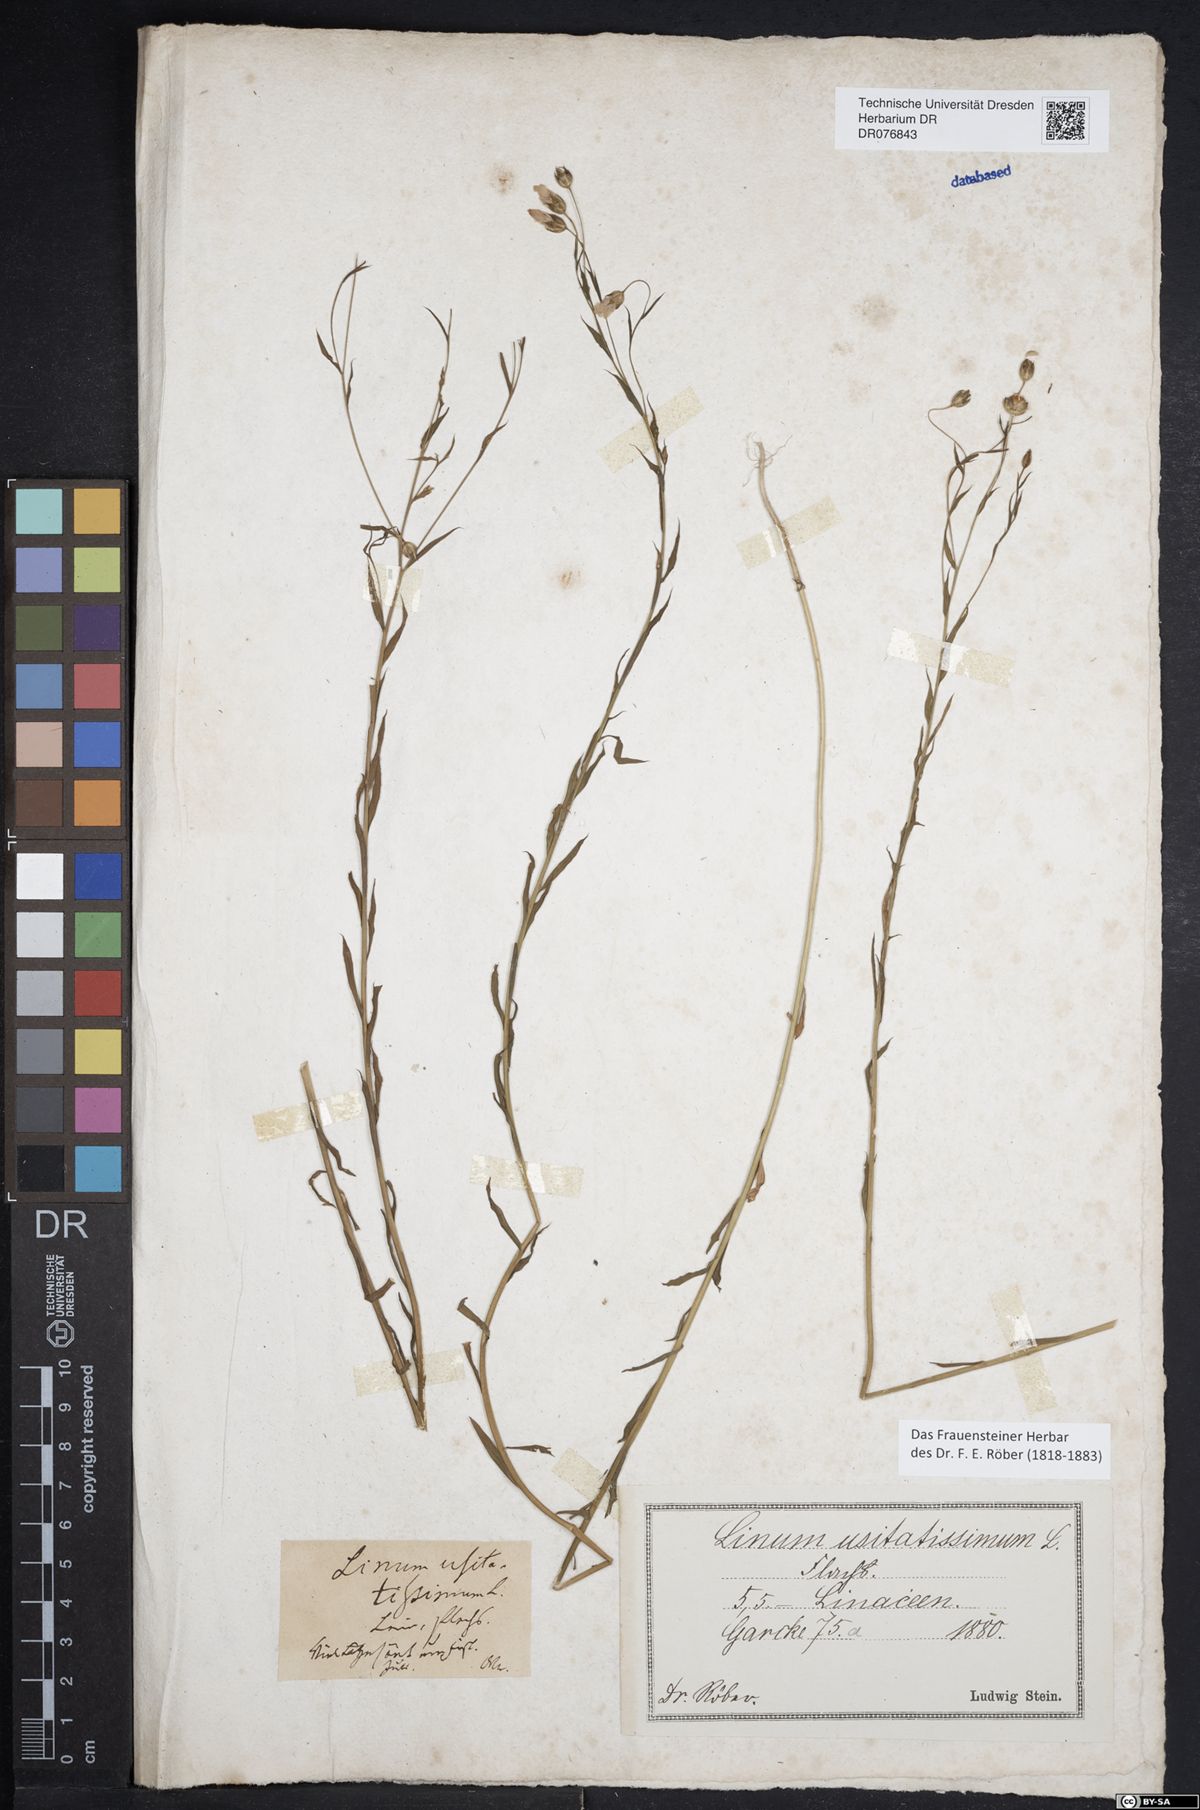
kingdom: Plantae
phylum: Tracheophyta
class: Magnoliopsida
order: Malpighiales
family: Linaceae
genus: Linum
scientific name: Linum usitatissimum
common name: Flax
